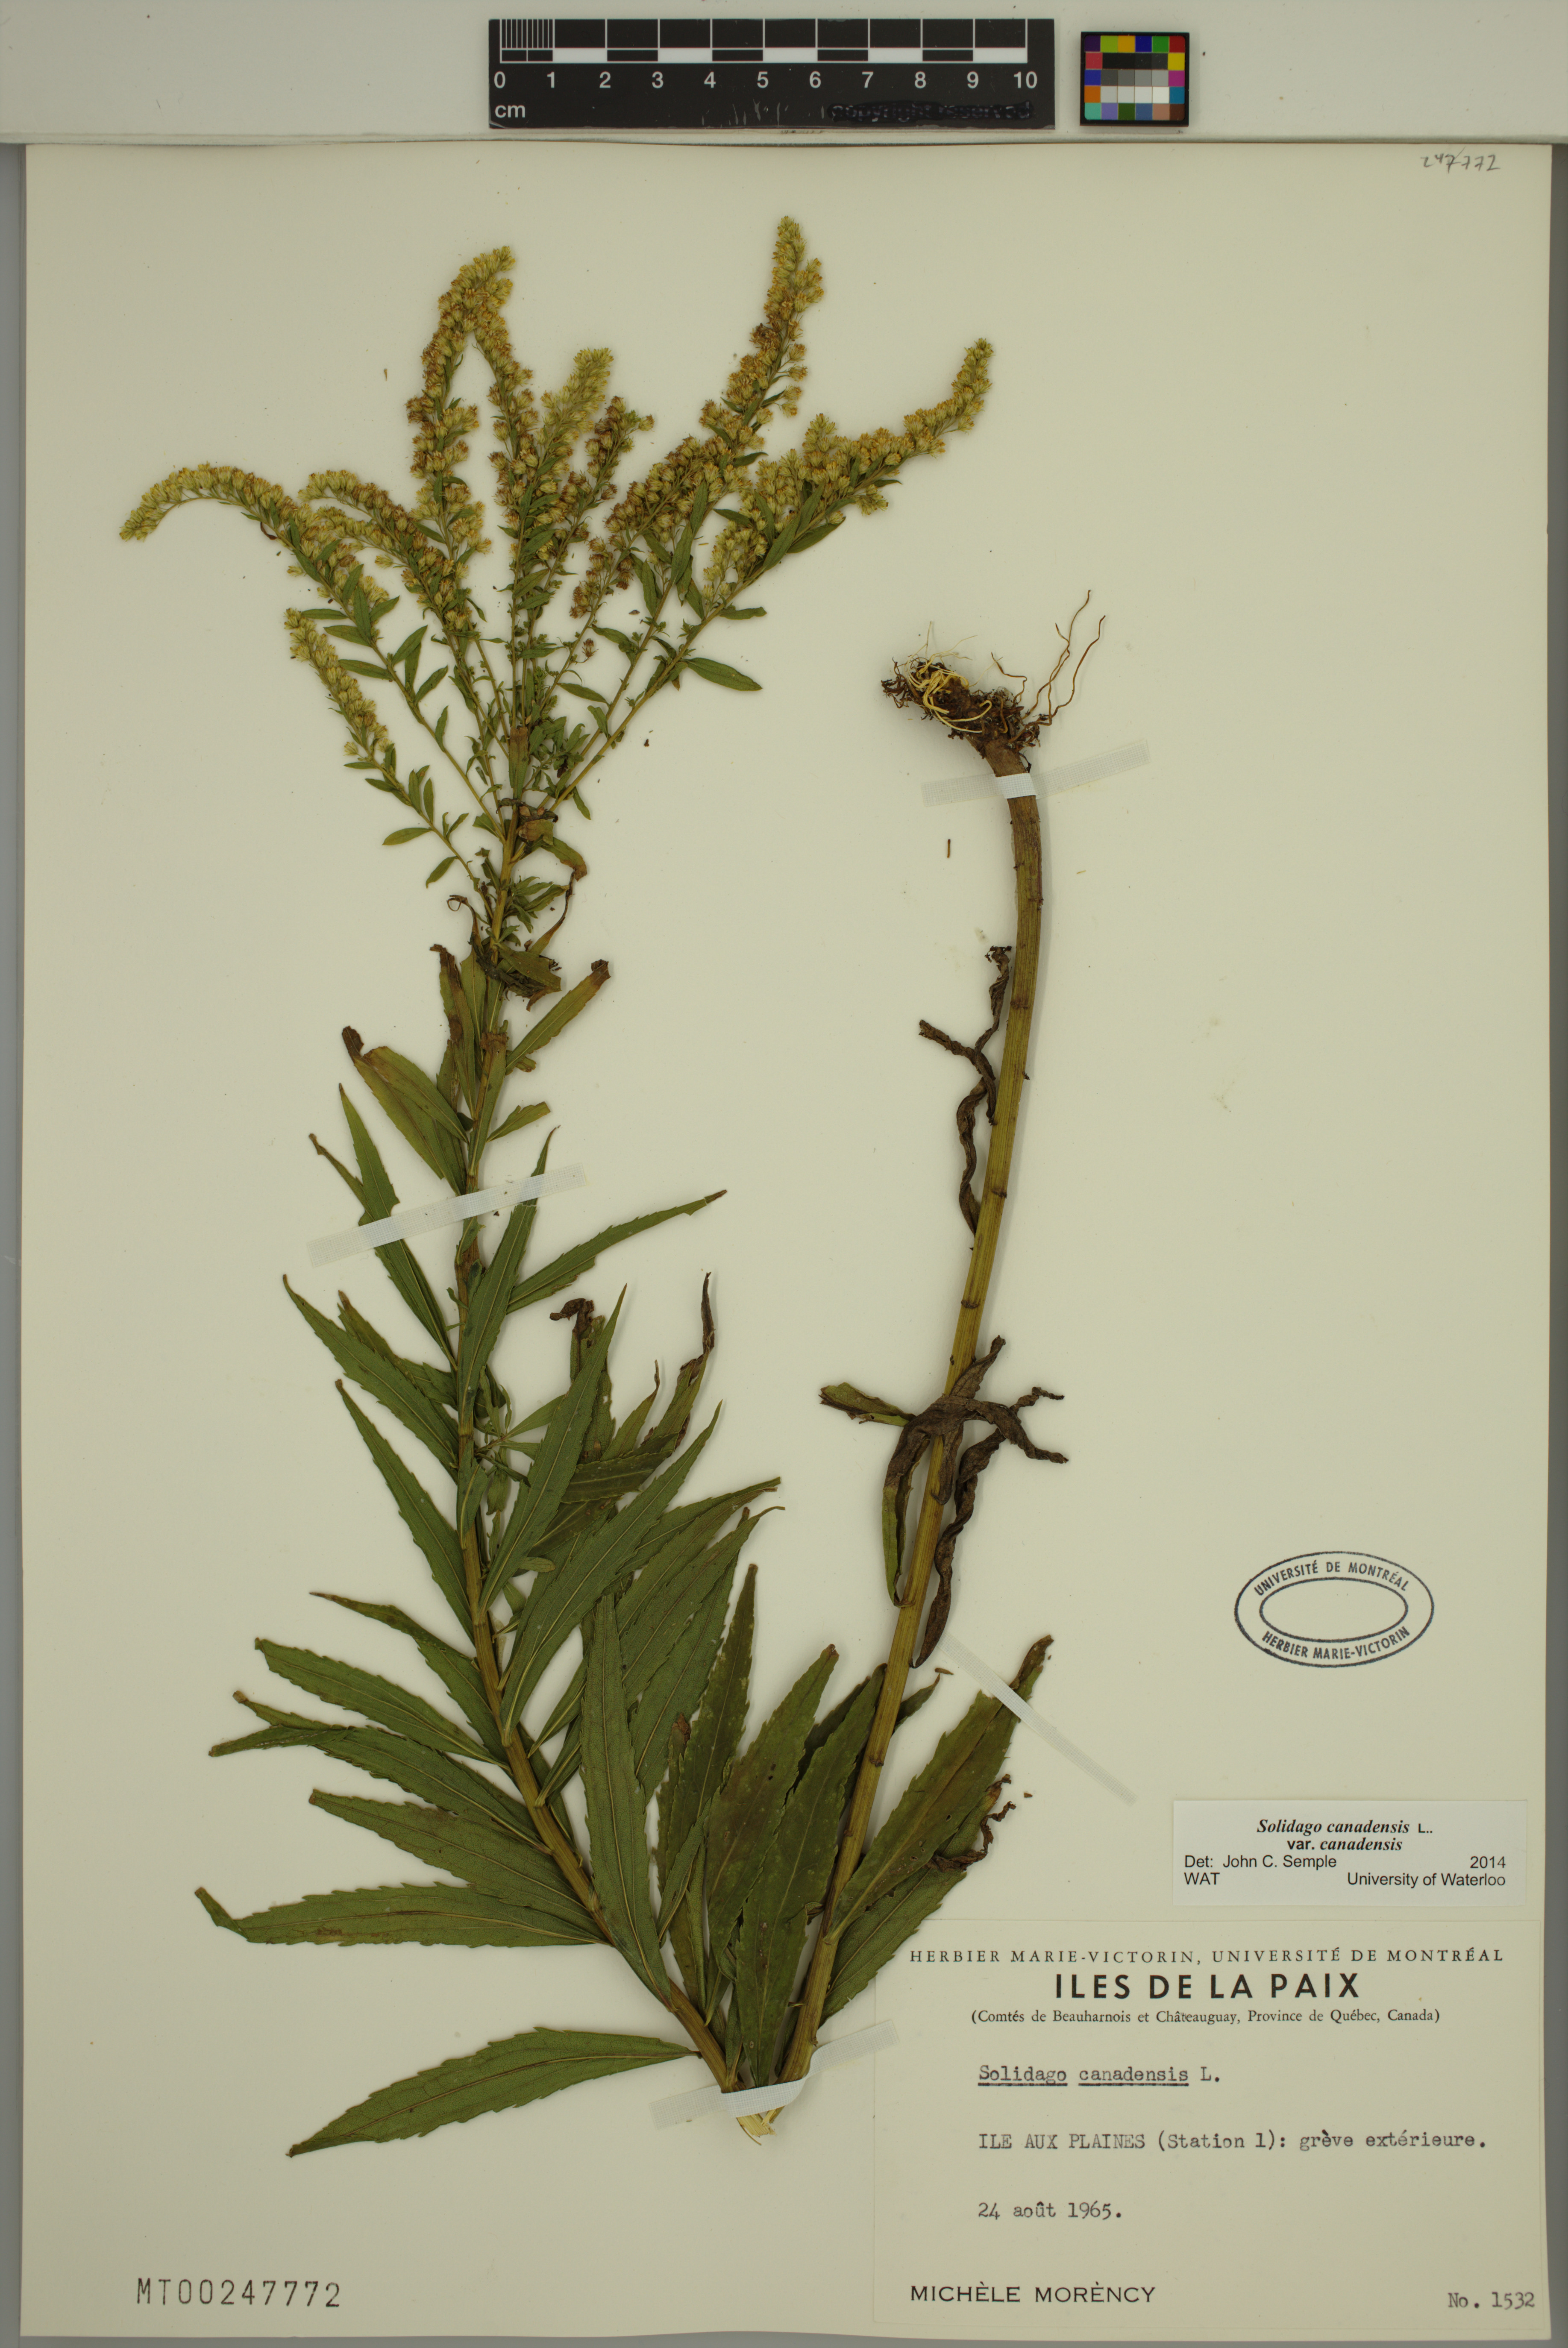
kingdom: Plantae
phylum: Tracheophyta
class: Magnoliopsida
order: Asterales
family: Asteraceae
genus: Solidago
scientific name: Solidago canadensis
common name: Canada goldenrod
